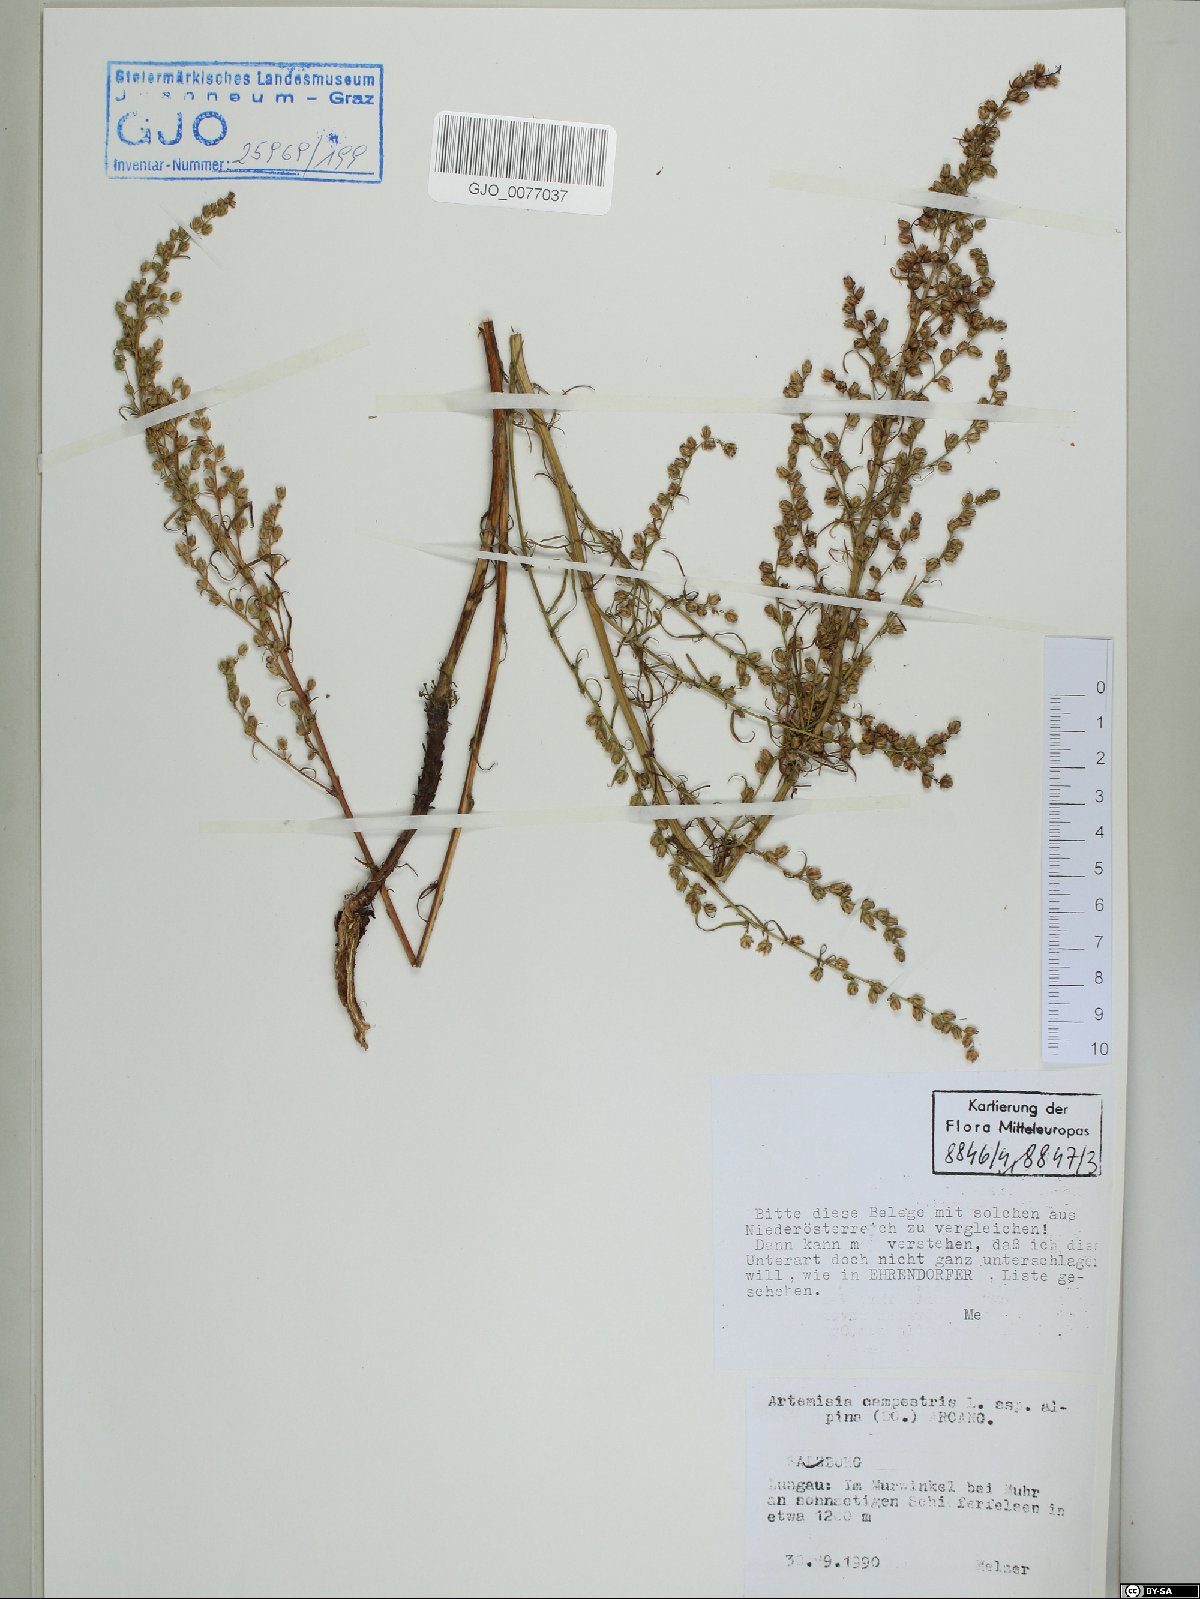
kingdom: Plantae
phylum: Tracheophyta
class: Magnoliopsida
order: Asterales
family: Asteraceae
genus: Artemisia
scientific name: Artemisia campestris
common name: Field wormwood
